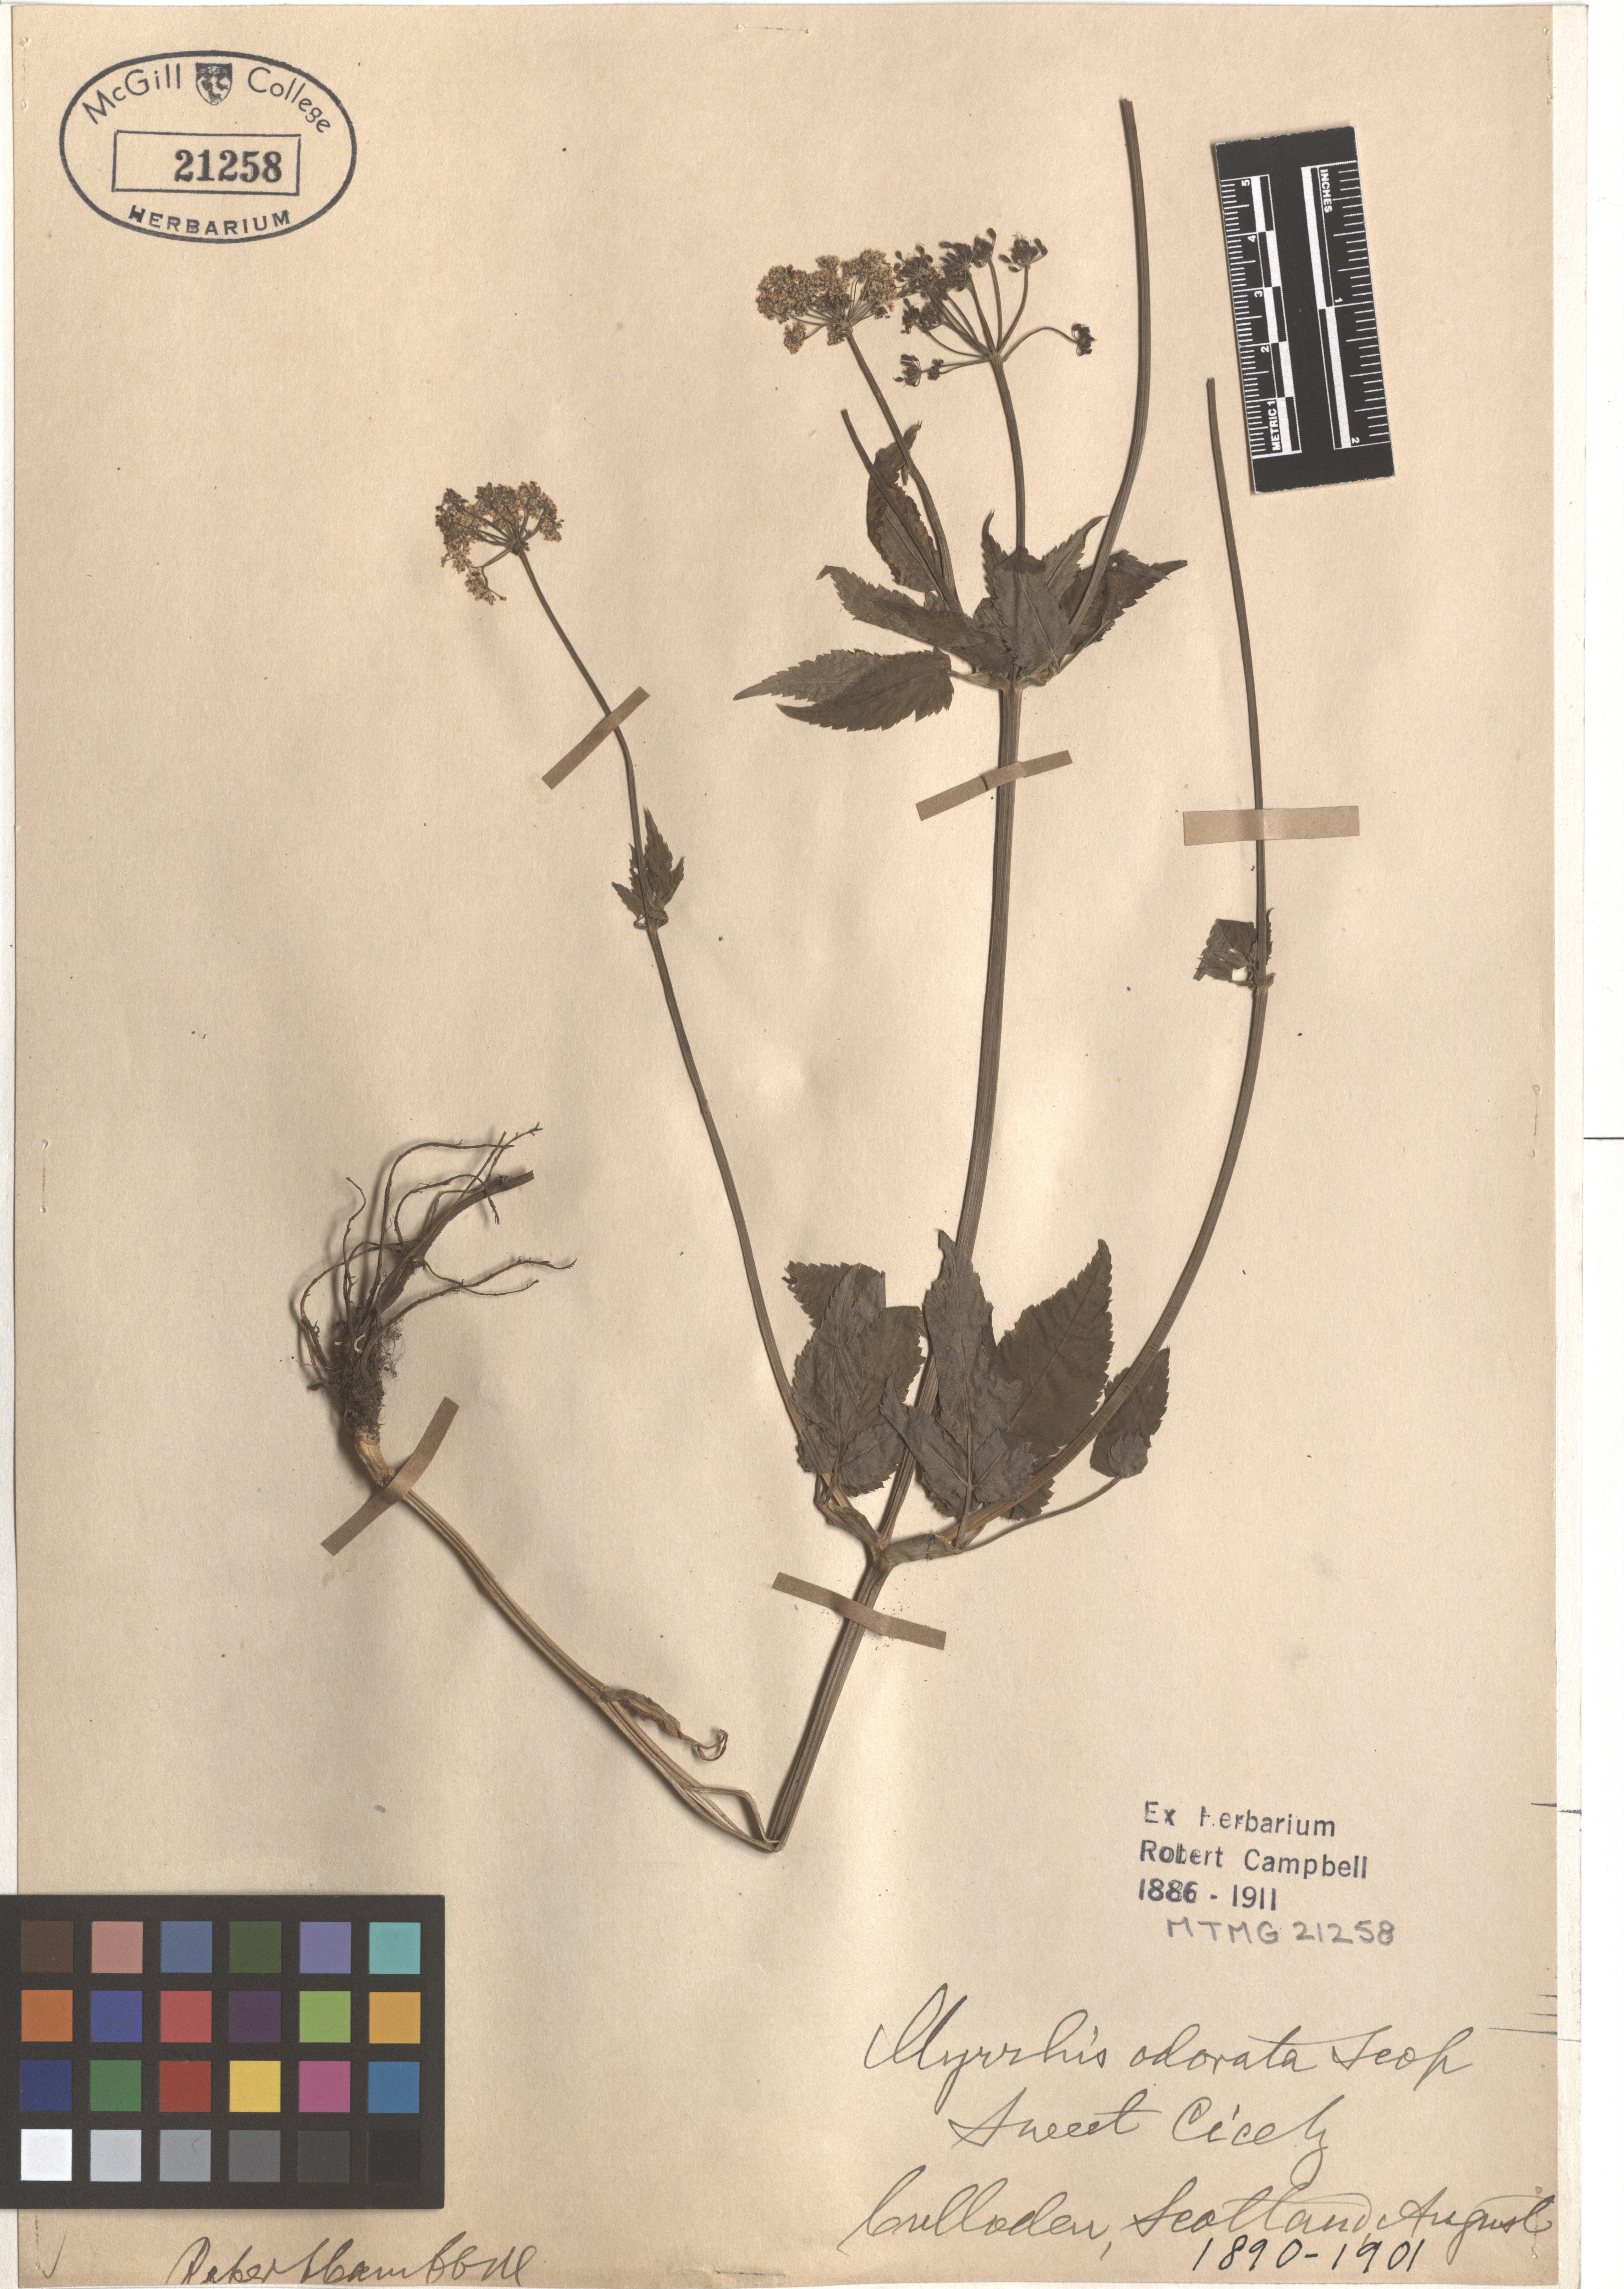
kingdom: Plantae
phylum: Tracheophyta
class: Magnoliopsida
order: Apiales
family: Apiaceae
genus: Myrrhis
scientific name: Myrrhis odorata
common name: Sweet cicely
